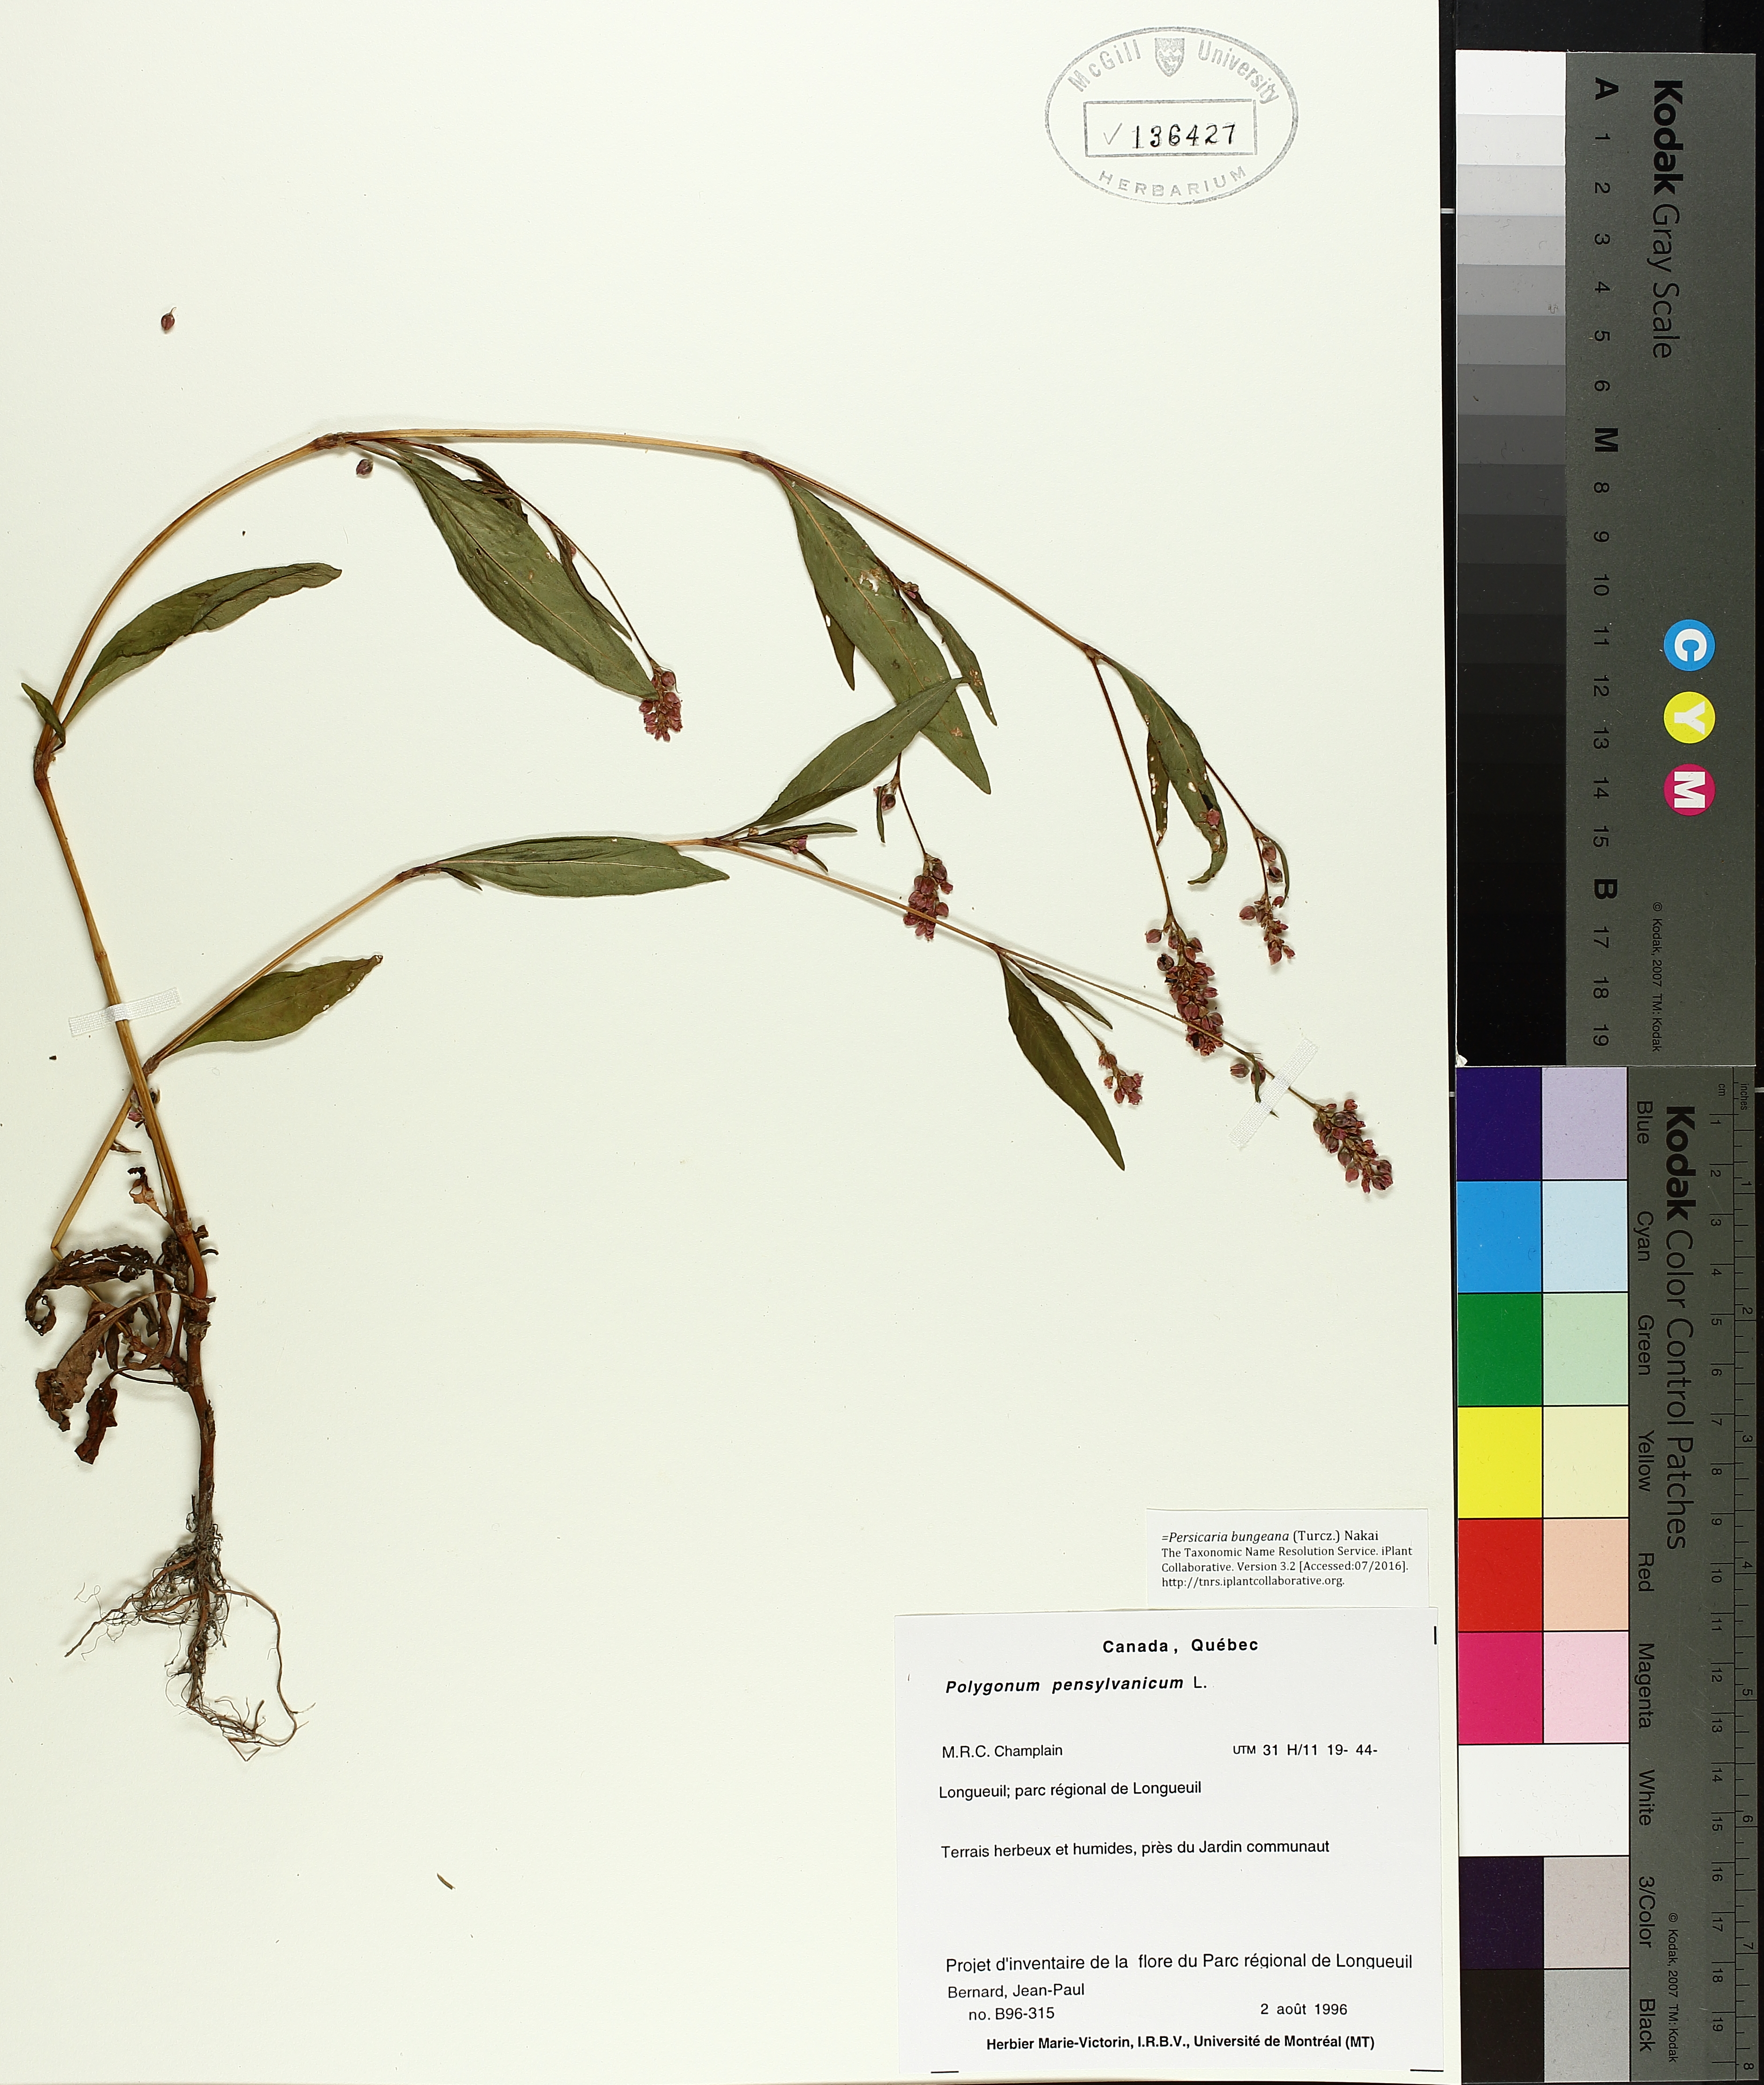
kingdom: Plantae
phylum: Tracheophyta
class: Magnoliopsida
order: Caryophyllales
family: Polygonaceae
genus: Persicaria
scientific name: Persicaria bungeana
